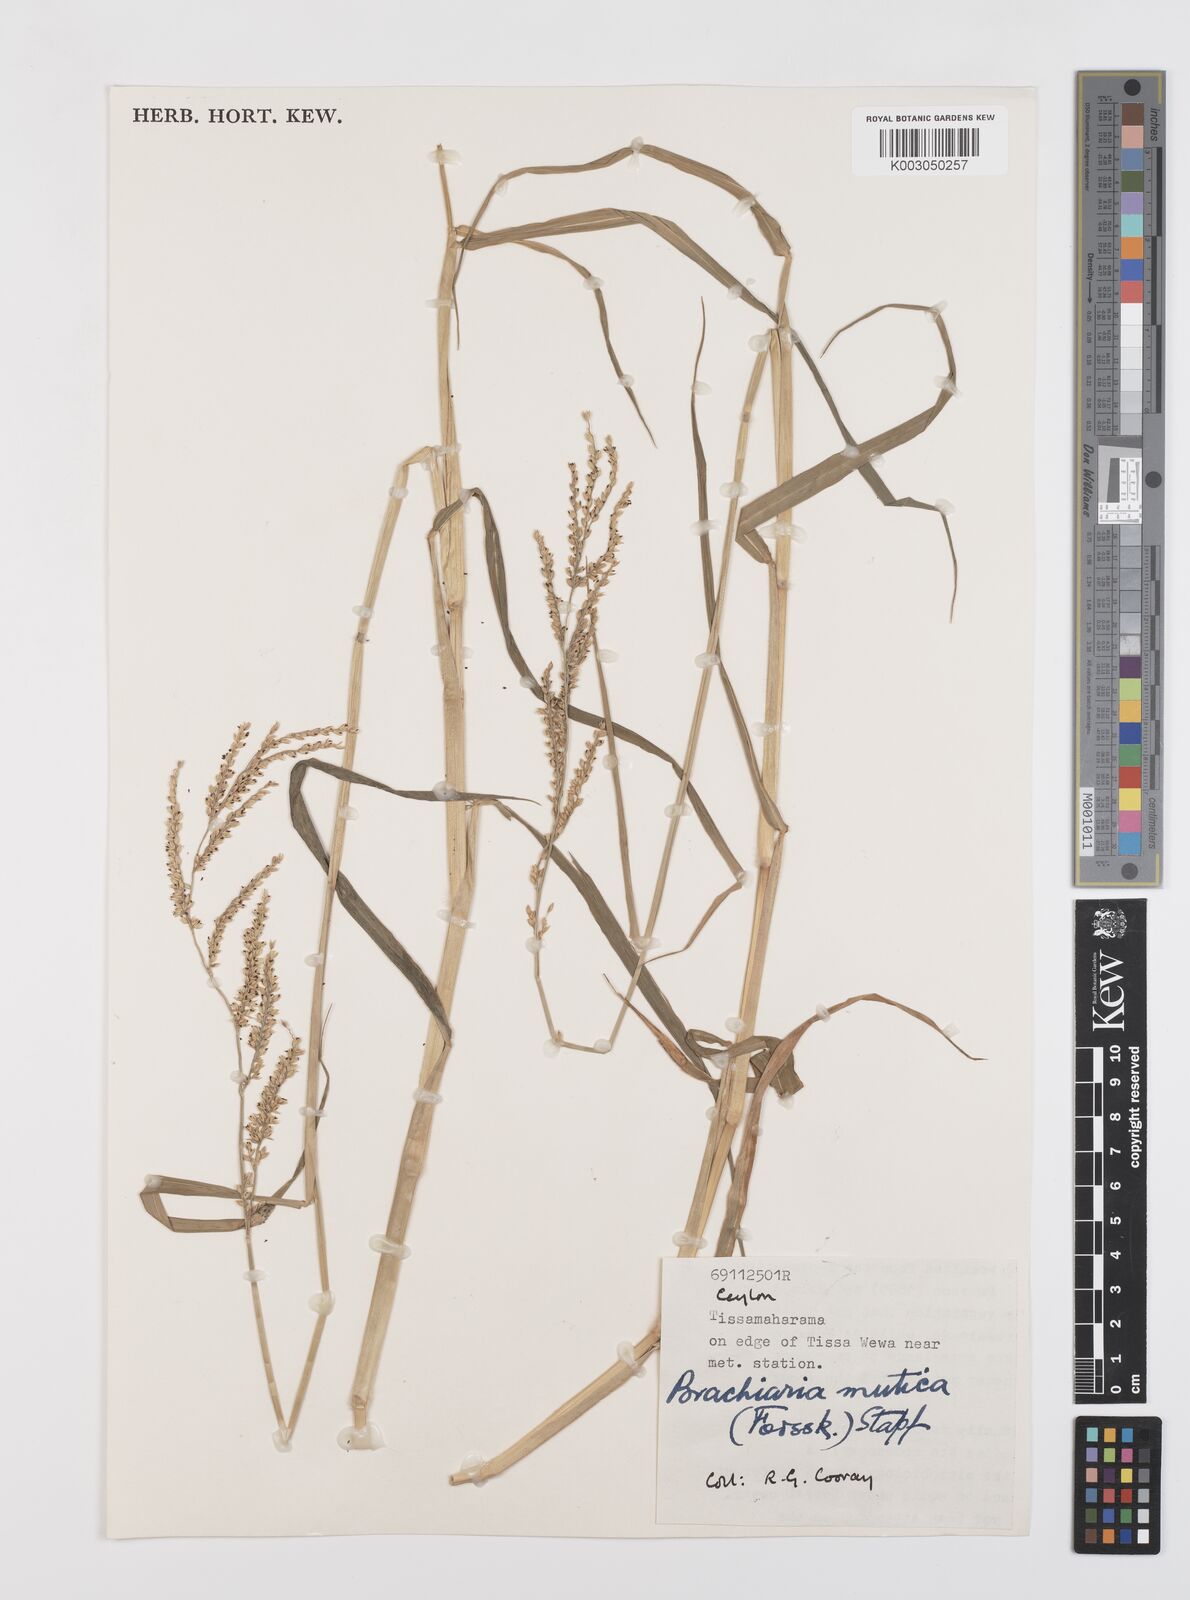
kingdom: Plantae
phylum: Tracheophyta
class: Liliopsida
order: Poales
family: Poaceae
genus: Urochloa
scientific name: Urochloa mutica
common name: Para grass
